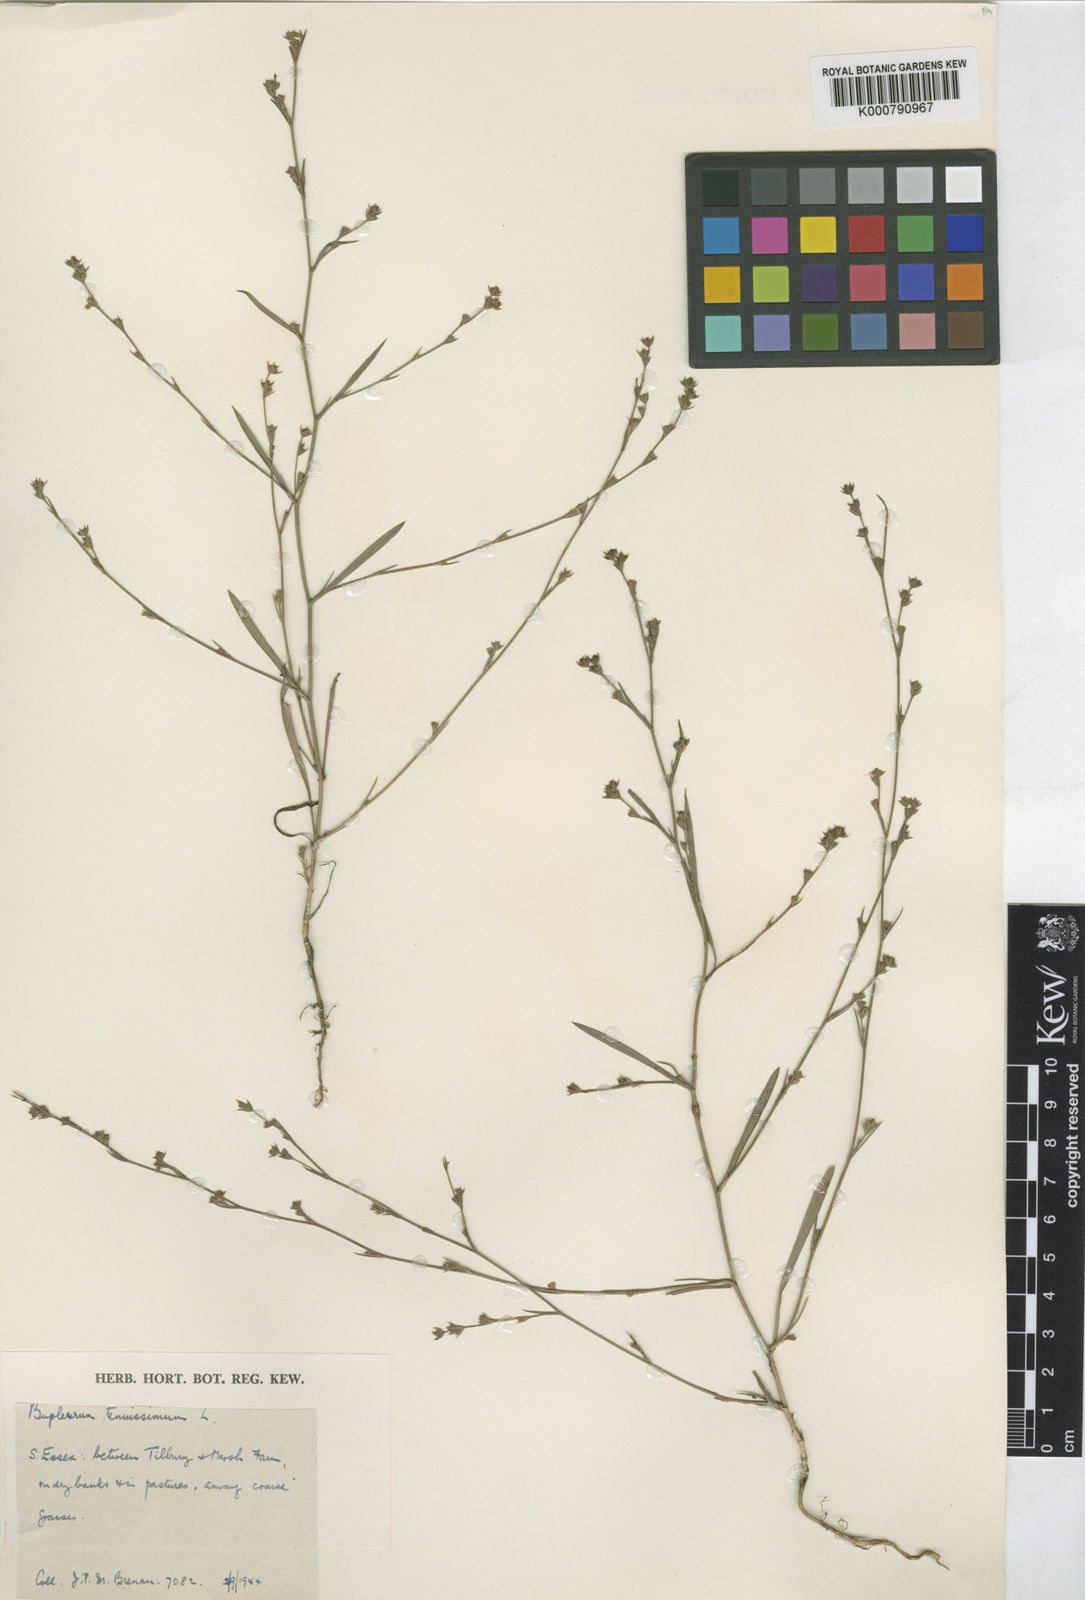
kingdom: Plantae
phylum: Tracheophyta
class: Magnoliopsida
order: Apiales
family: Apiaceae
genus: Bupleurum
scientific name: Bupleurum tenuissimum
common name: Slender hare's-ear
